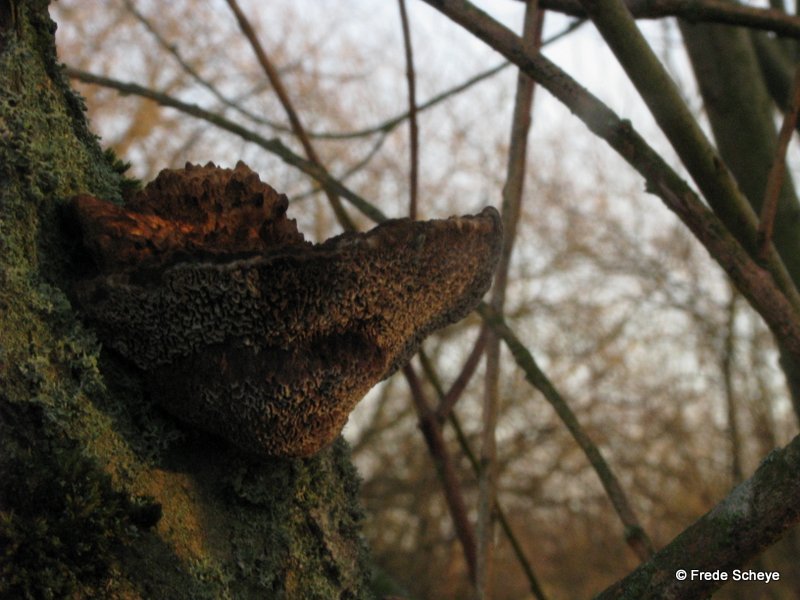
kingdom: Fungi
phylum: Basidiomycota
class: Agaricomycetes
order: Polyporales
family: Polyporaceae
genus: Daedaleopsis
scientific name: Daedaleopsis confragosa
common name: rødmende læderporesvamp
